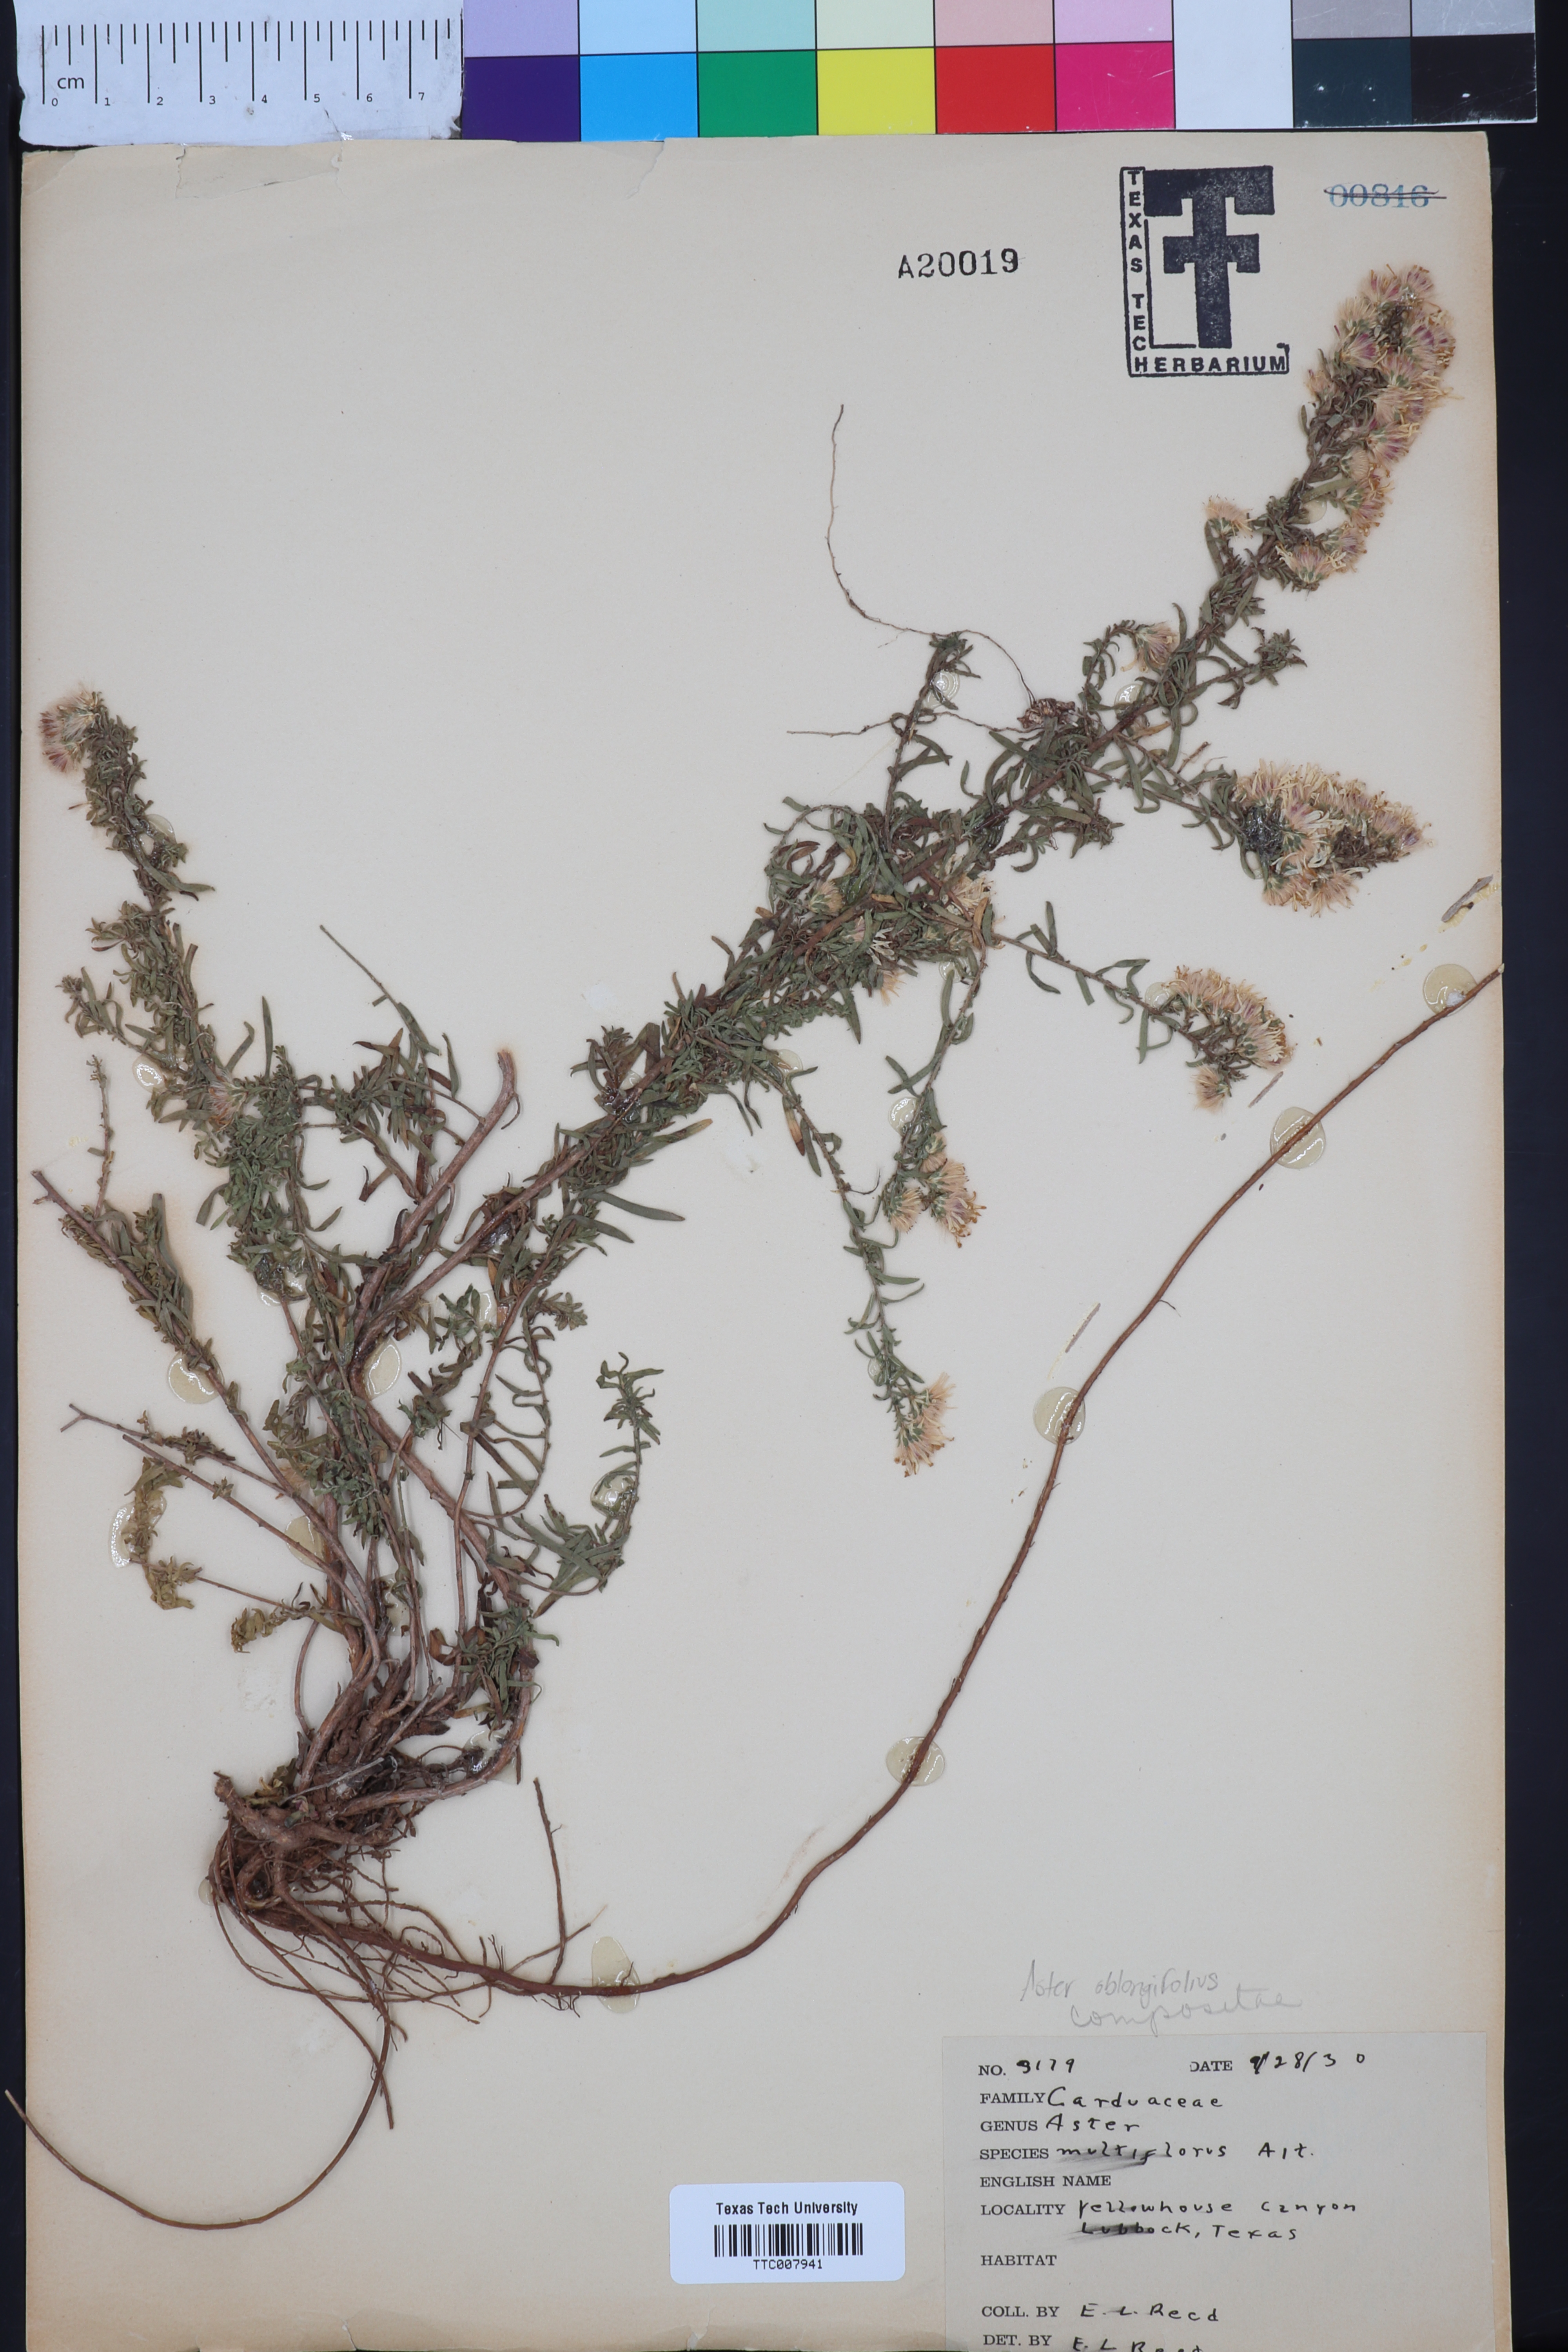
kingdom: Plantae
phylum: Tracheophyta
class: Magnoliopsida
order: Asterales
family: Asteraceae
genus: Symphyotrichum
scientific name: Symphyotrichum ericoides
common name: Heath aster
